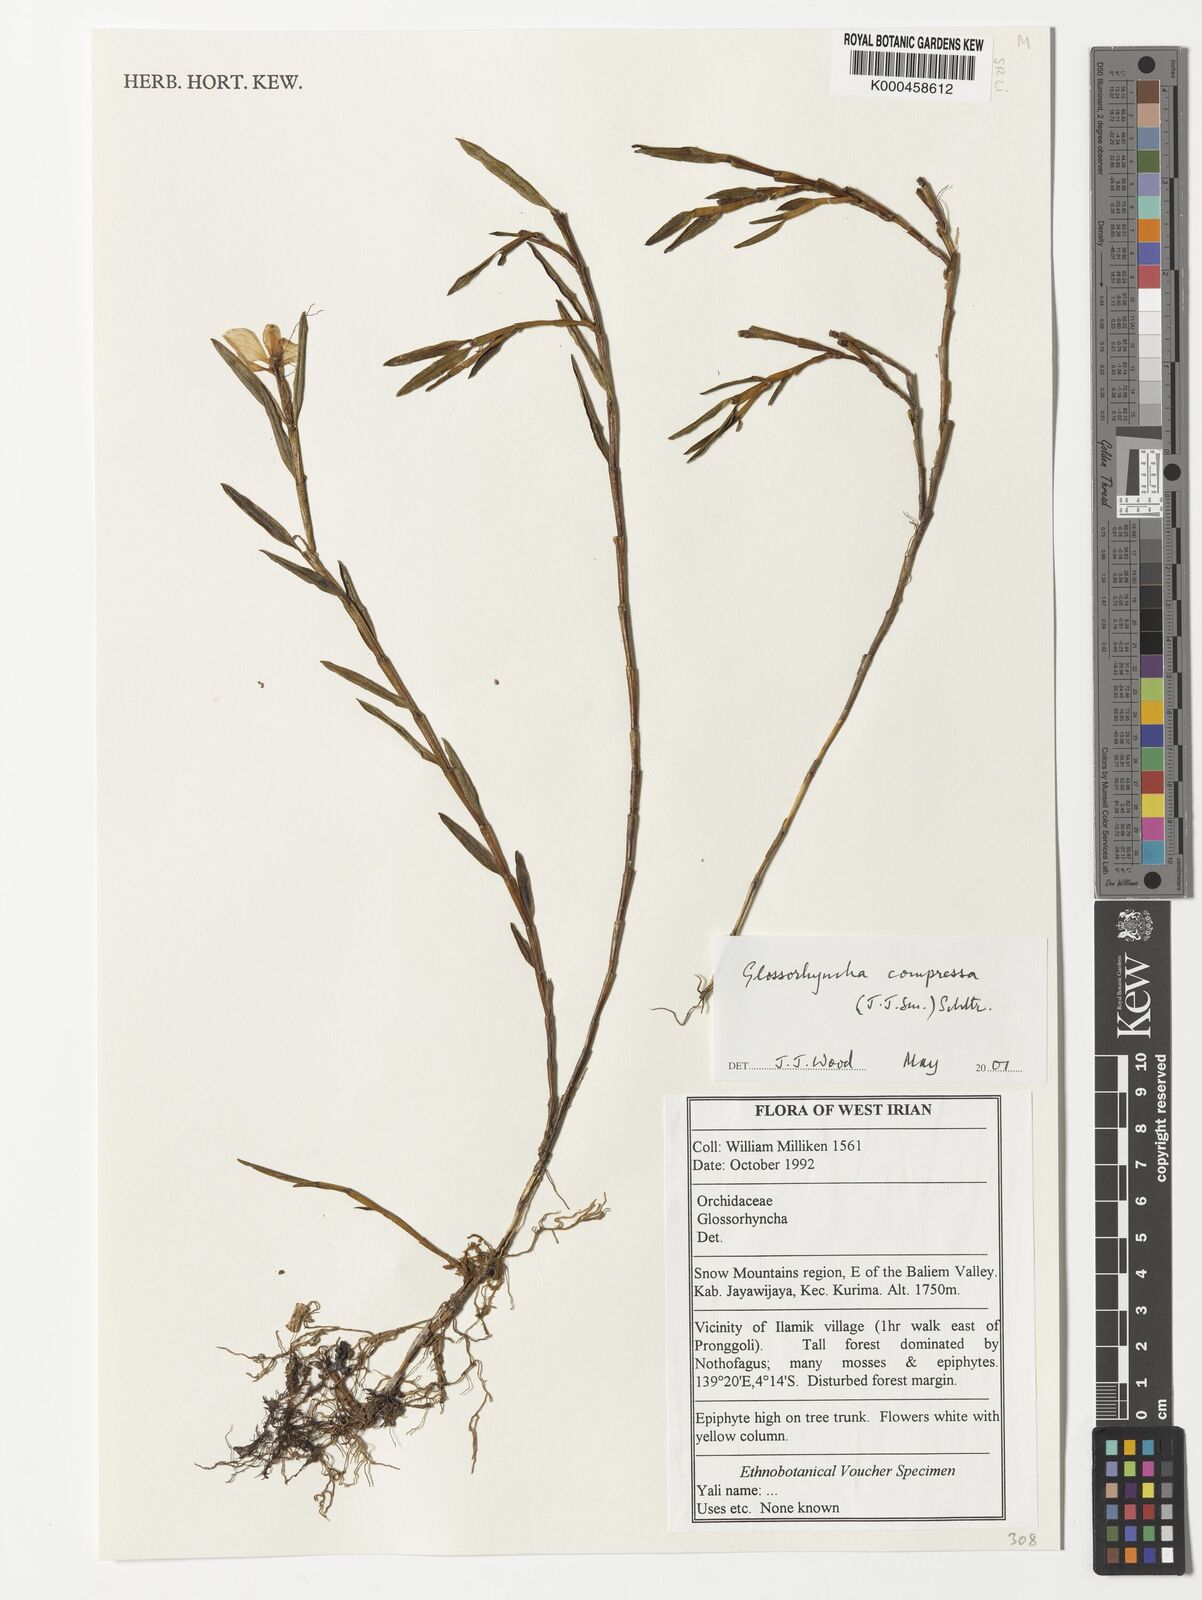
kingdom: Plantae
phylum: Tracheophyta
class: Liliopsida
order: Asparagales
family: Orchidaceae
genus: Glomera
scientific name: Glomera compressa
